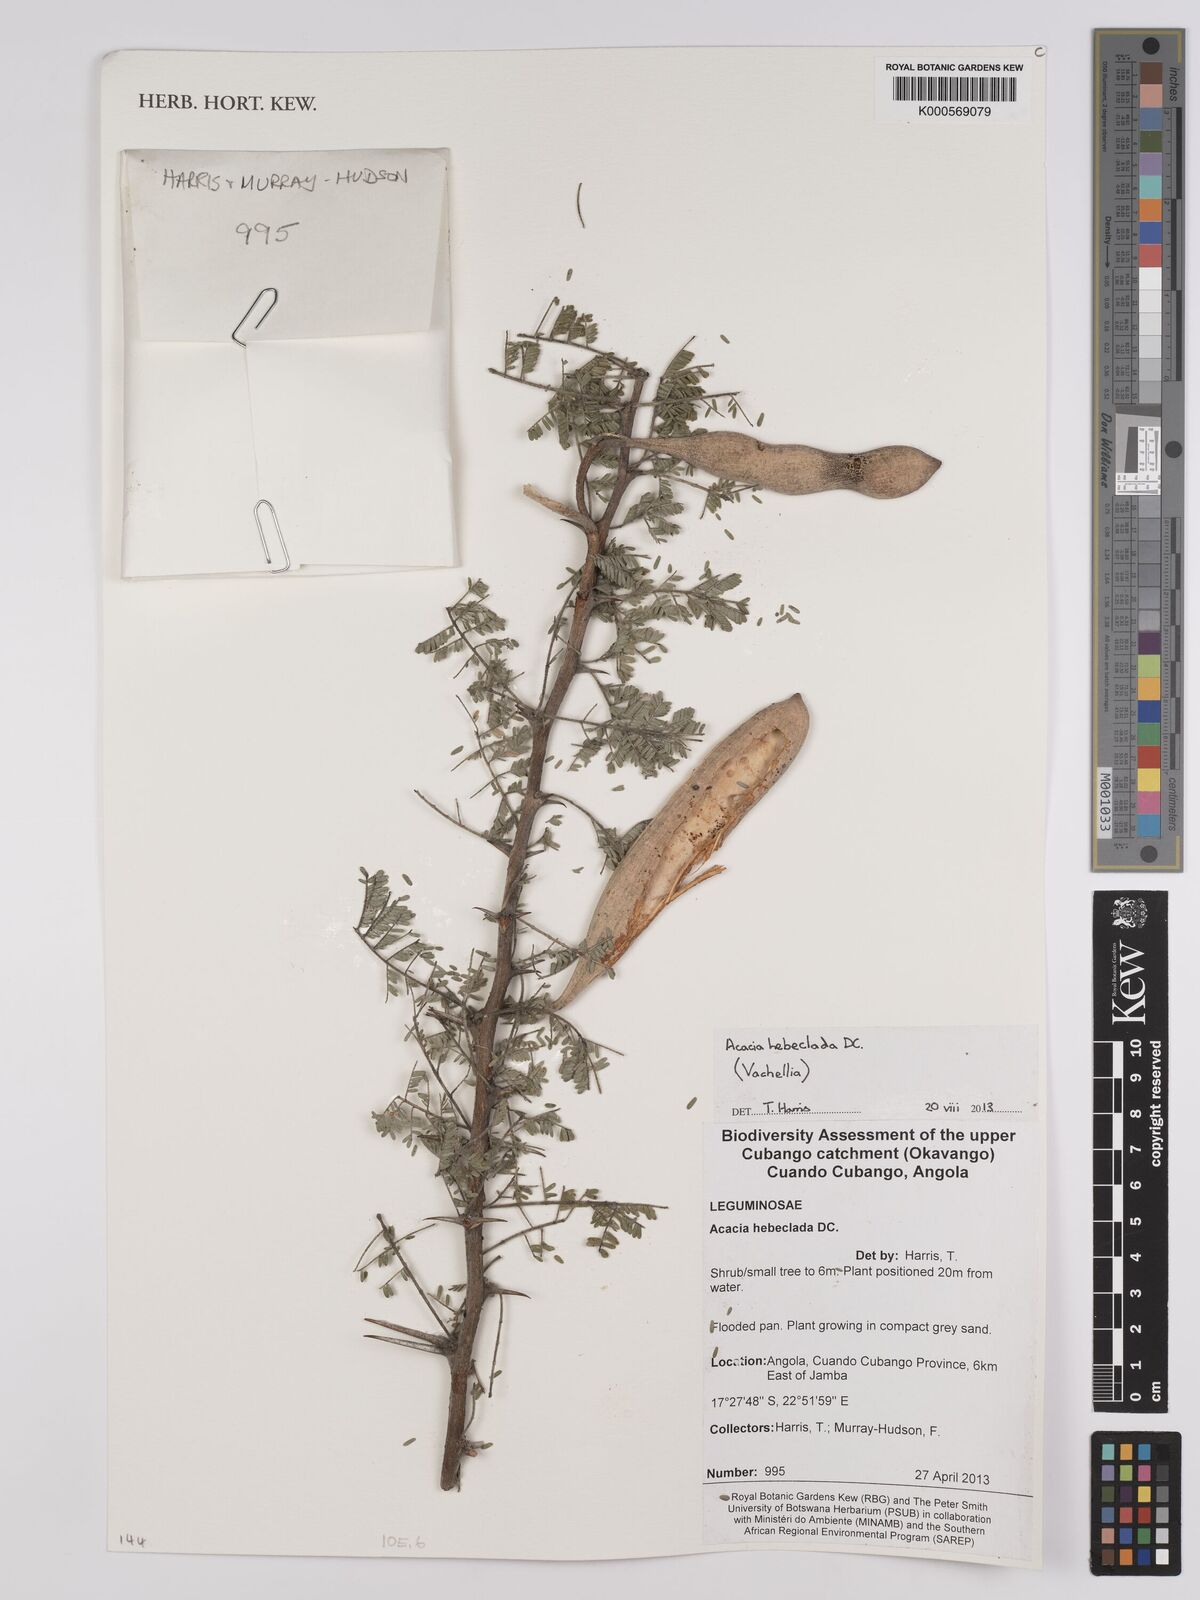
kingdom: Plantae
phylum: Tracheophyta
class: Magnoliopsida
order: Fabales
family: Fabaceae
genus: Vachellia
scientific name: Vachellia hebeclada
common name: Candle thorn
